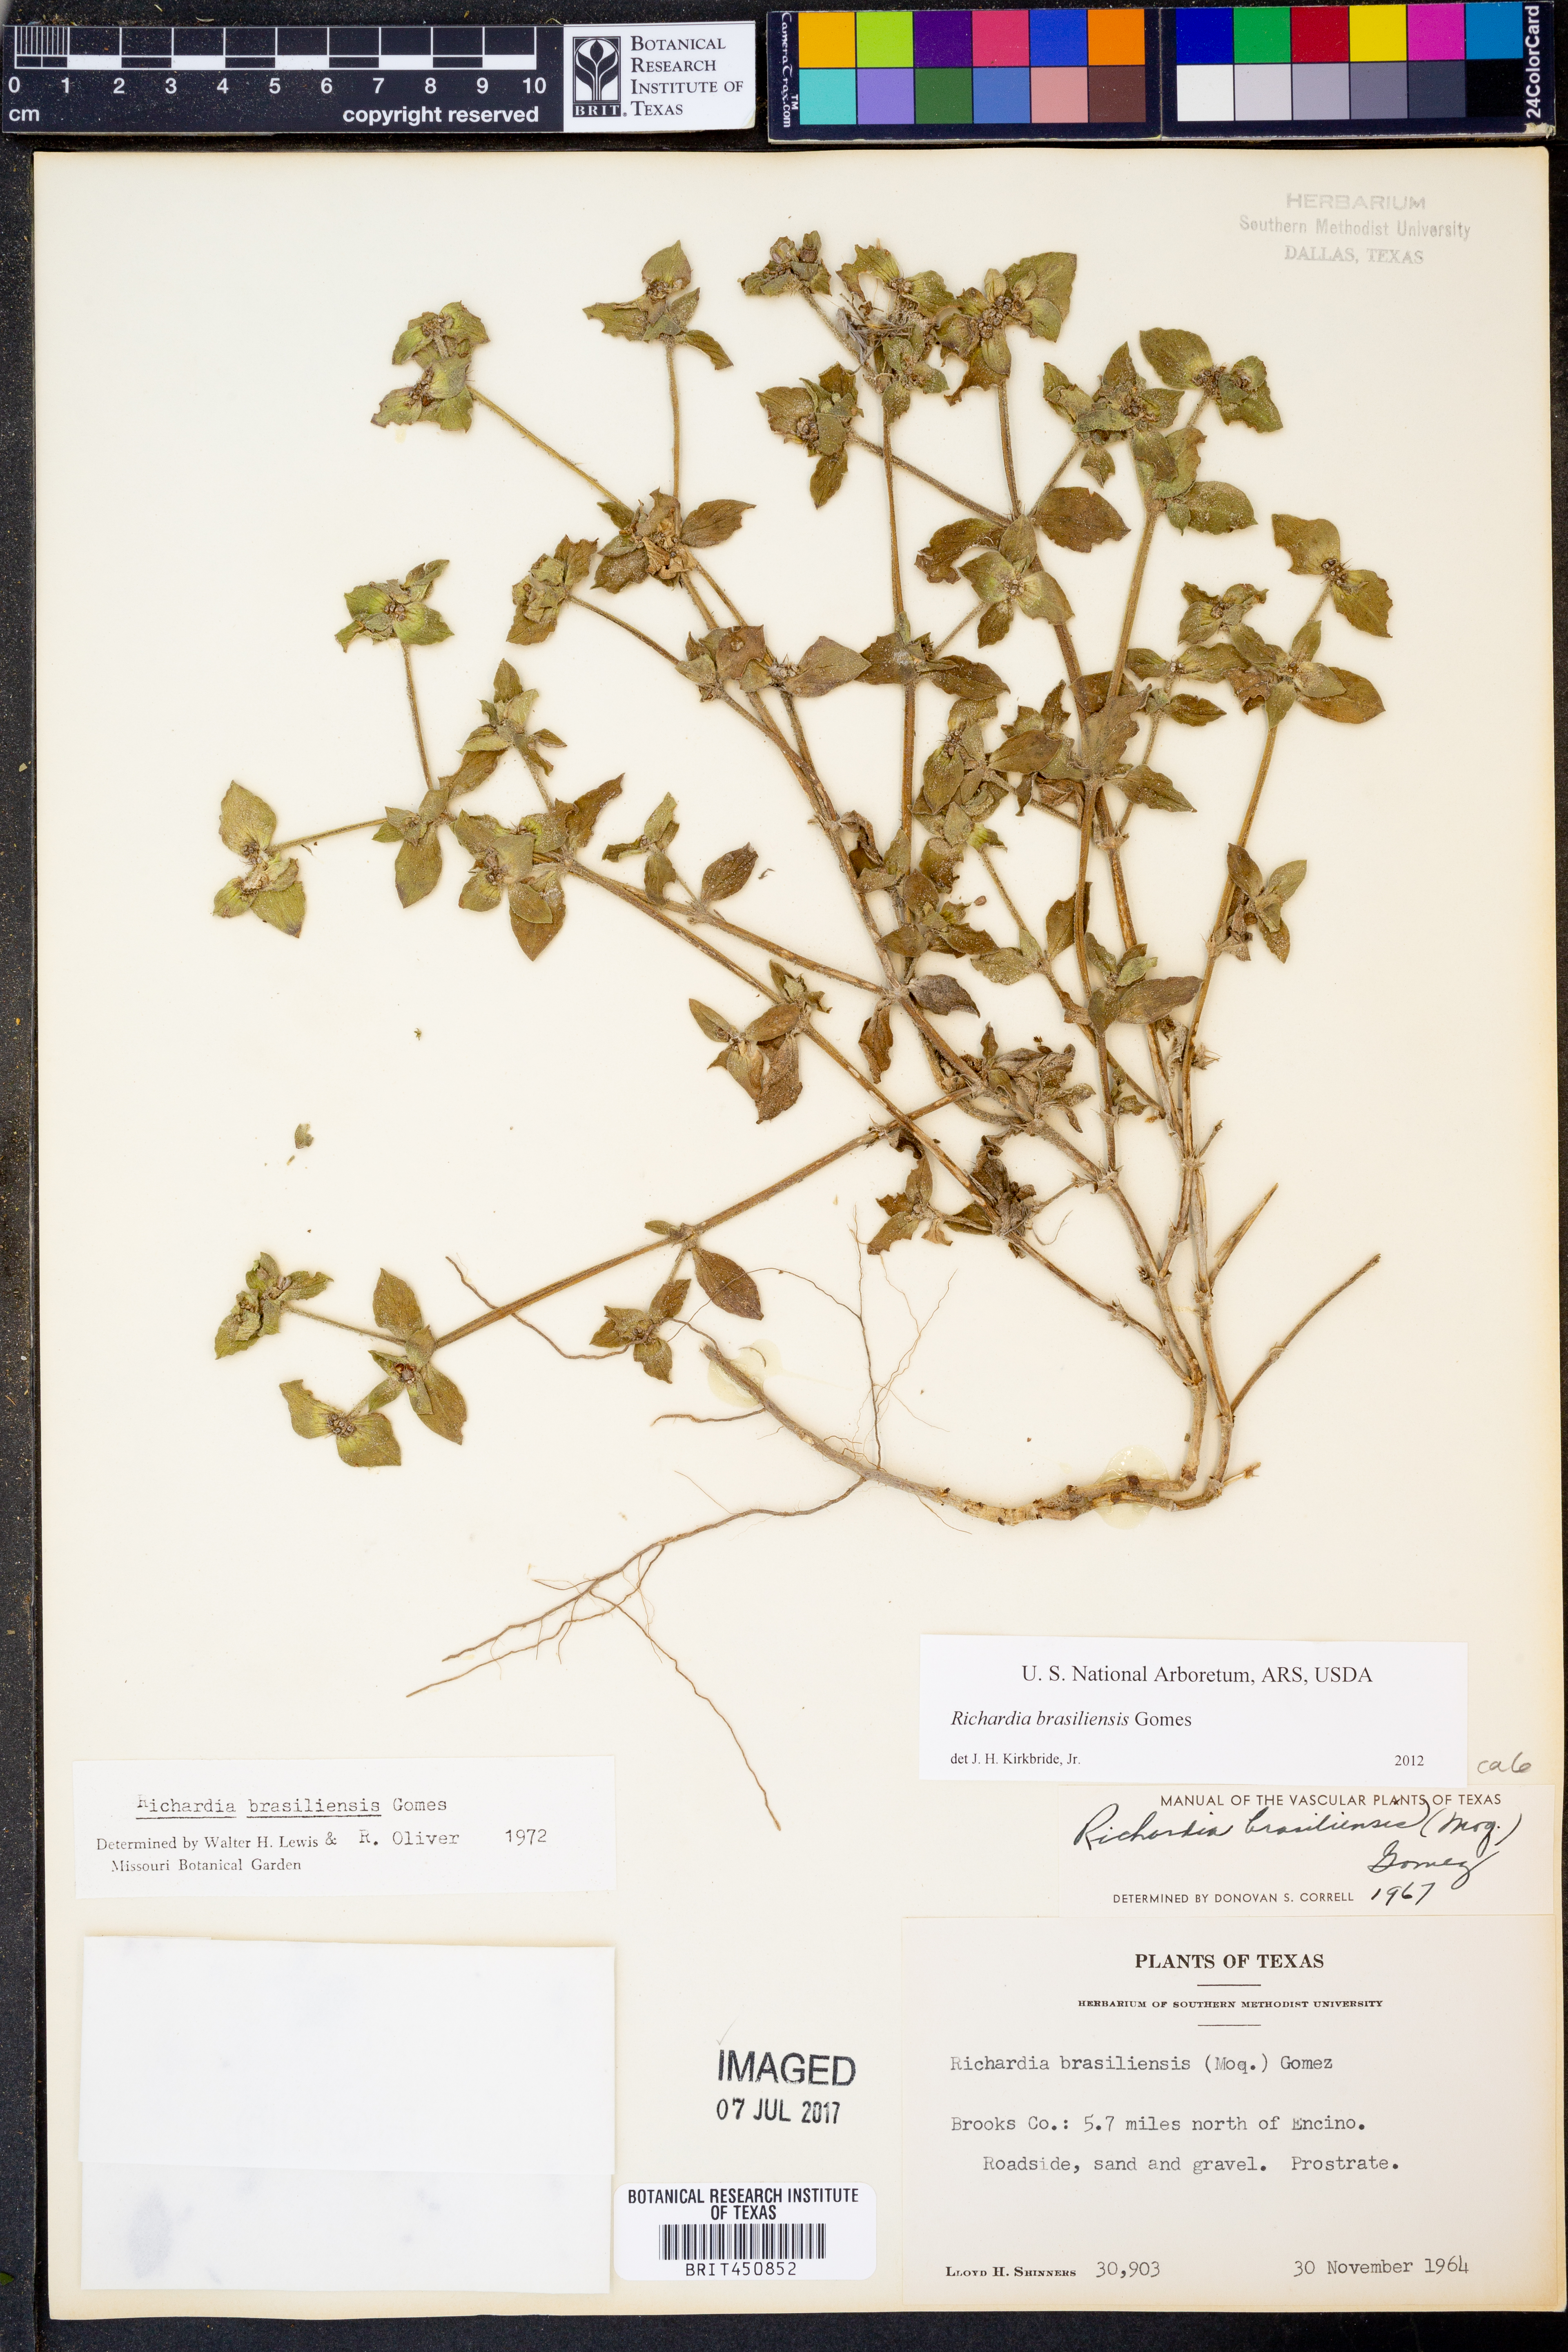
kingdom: Plantae
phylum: Tracheophyta
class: Magnoliopsida
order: Gentianales
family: Rubiaceae
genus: Richardia
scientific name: Richardia brasiliensis
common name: Tropical mexican clover
